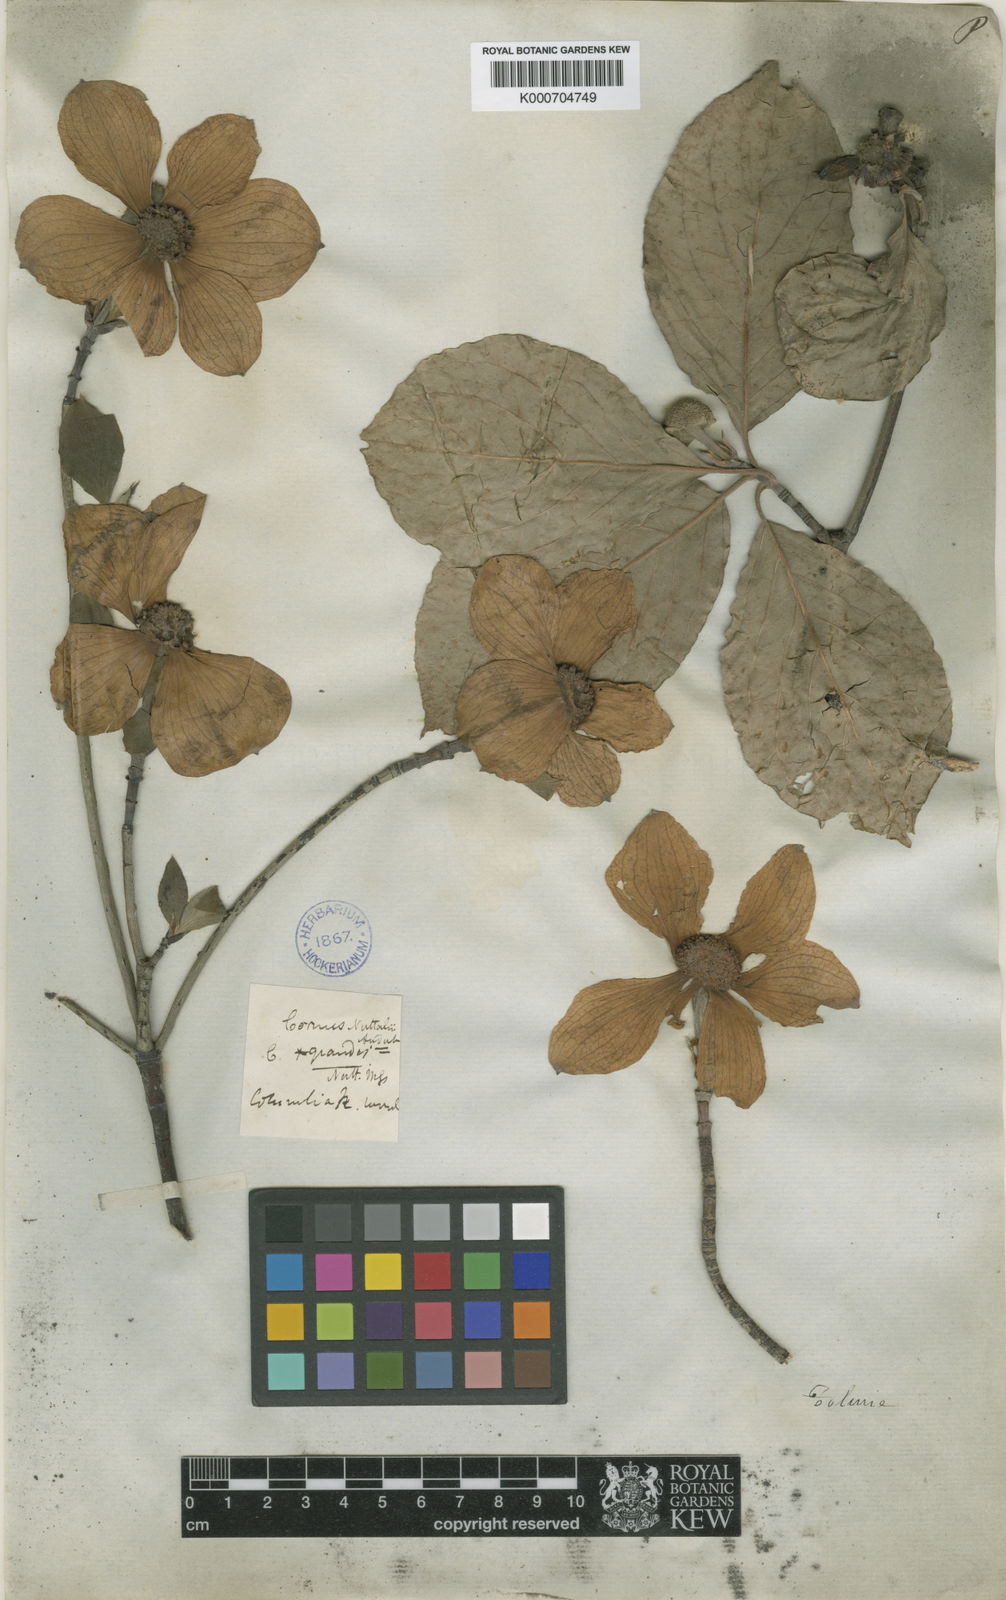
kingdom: Plantae
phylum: Tracheophyta
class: Magnoliopsida
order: Cornales
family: Cornaceae
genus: Cornus
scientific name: Cornus
